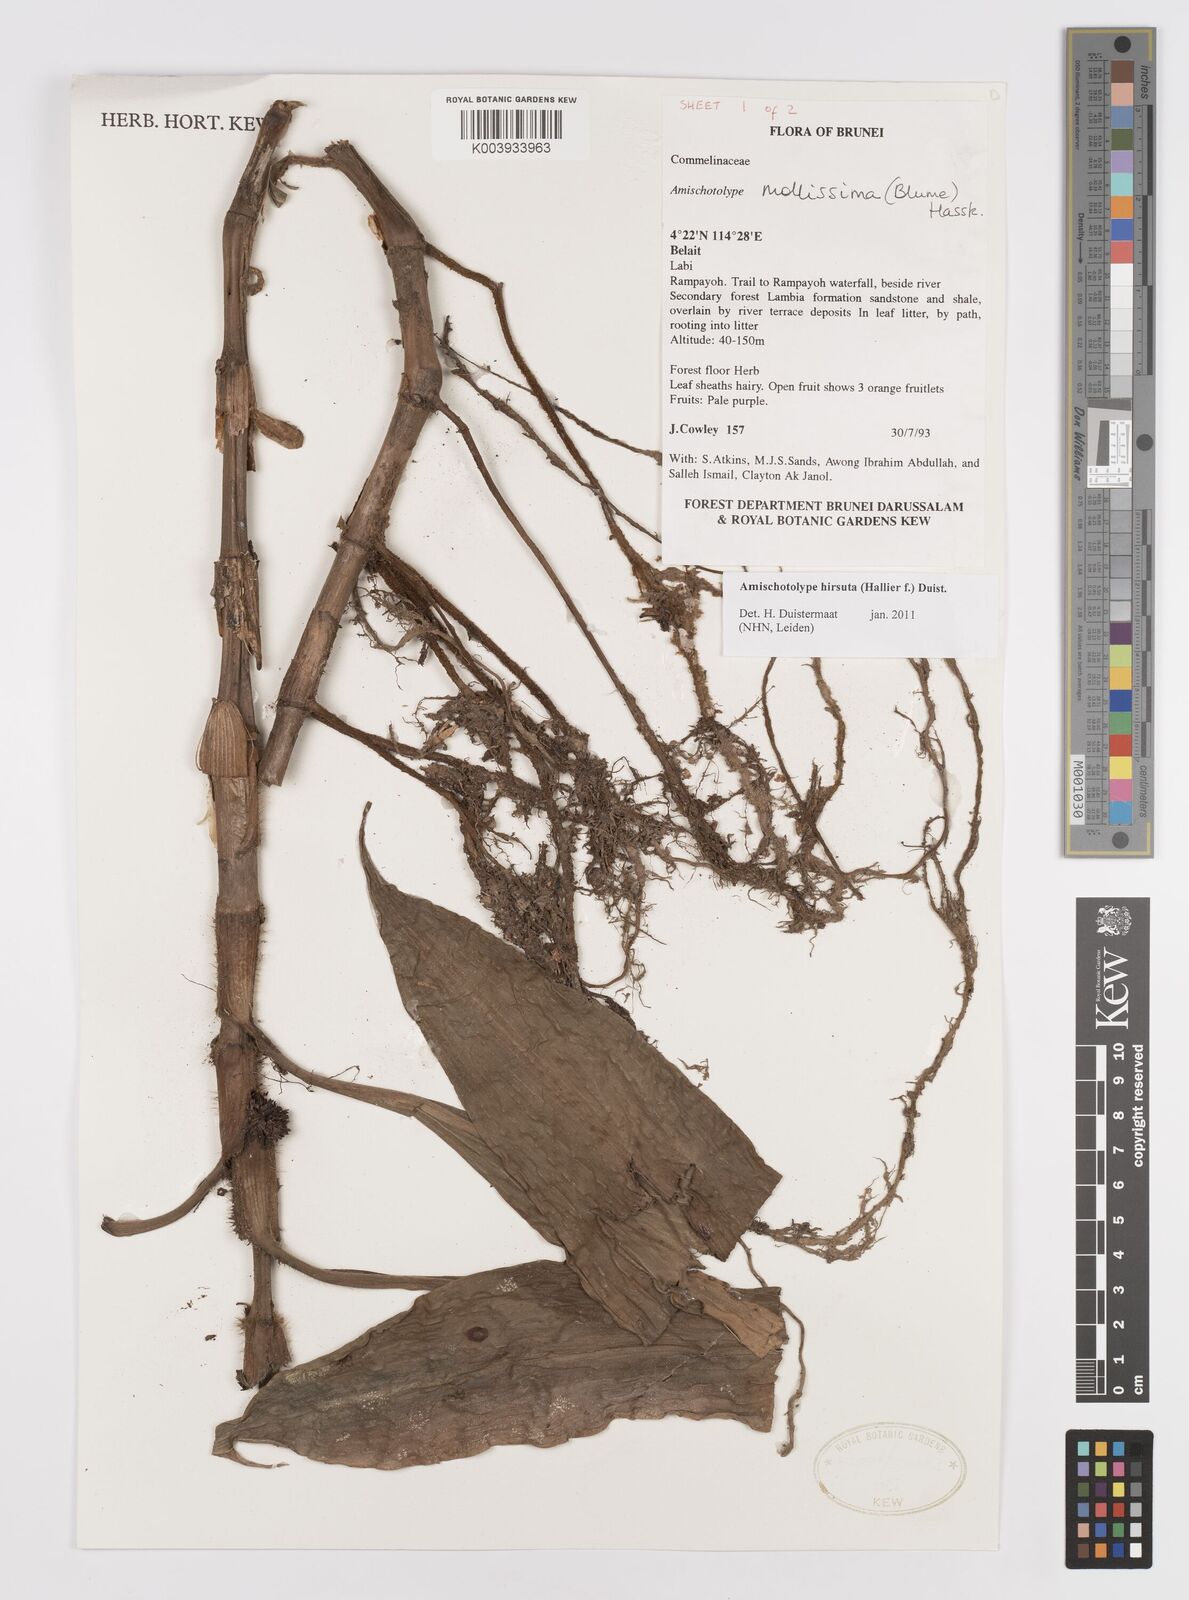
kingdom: Plantae
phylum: Tracheophyta
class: Liliopsida
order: Commelinales
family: Commelinaceae
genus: Amischotolype
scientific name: Amischotolype hirsuta
